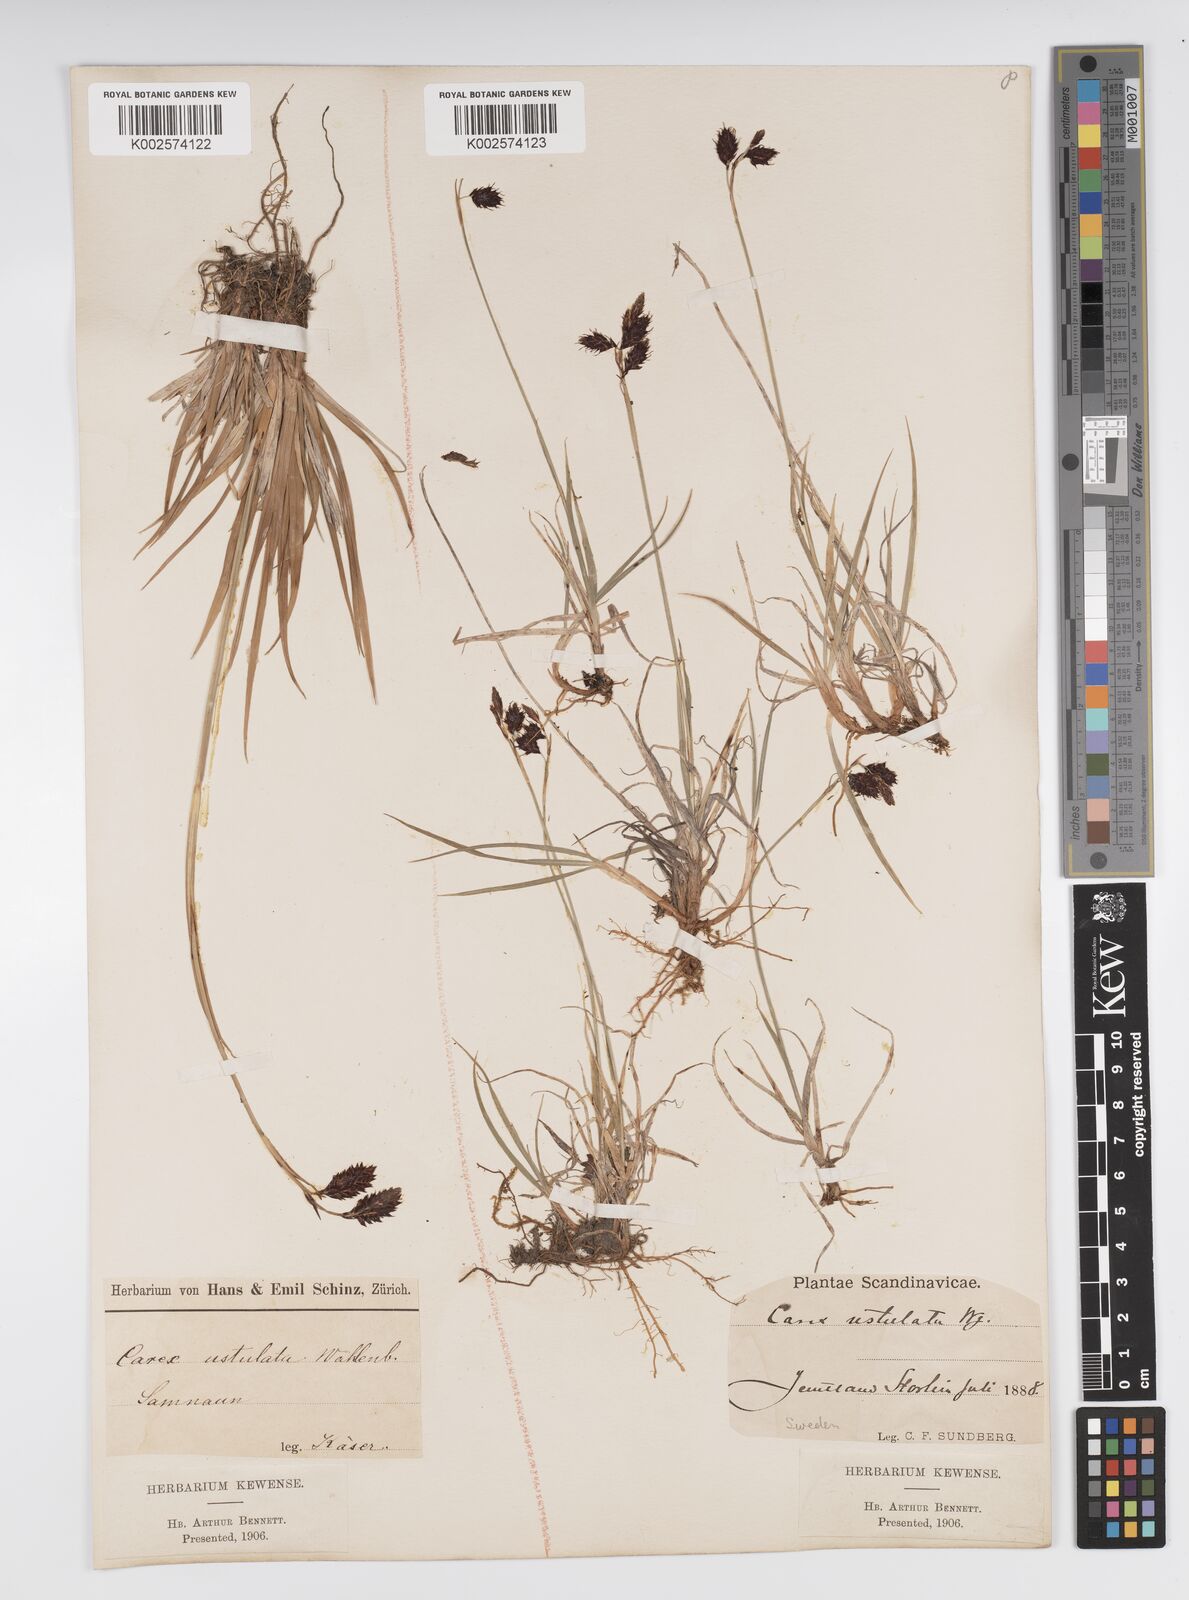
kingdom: Plantae
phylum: Tracheophyta
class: Liliopsida
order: Poales
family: Cyperaceae
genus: Carex
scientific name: Carex atrofusca
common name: Scorched alpine-sedge
